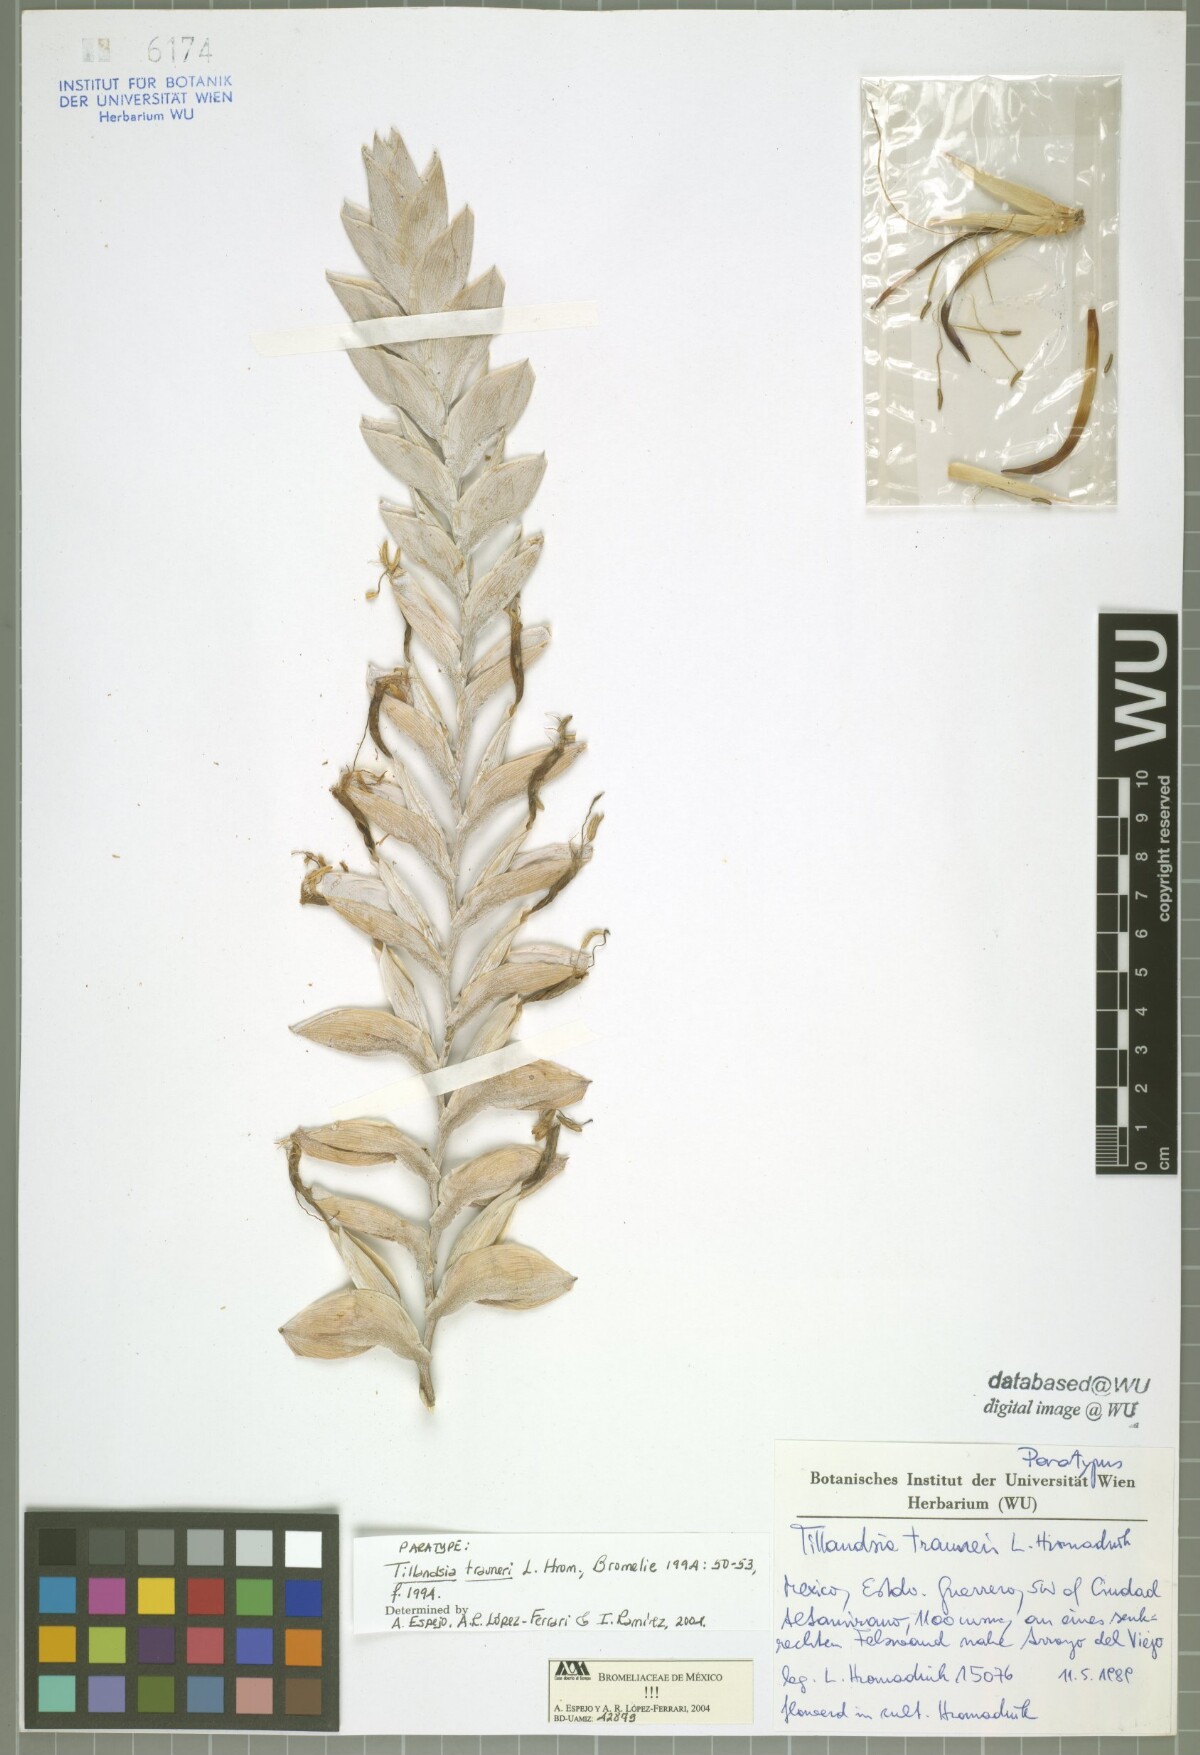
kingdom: Plantae
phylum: Tracheophyta
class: Liliopsida
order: Poales
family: Bromeliaceae
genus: Tillandsia
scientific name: Tillandsia trauneri
